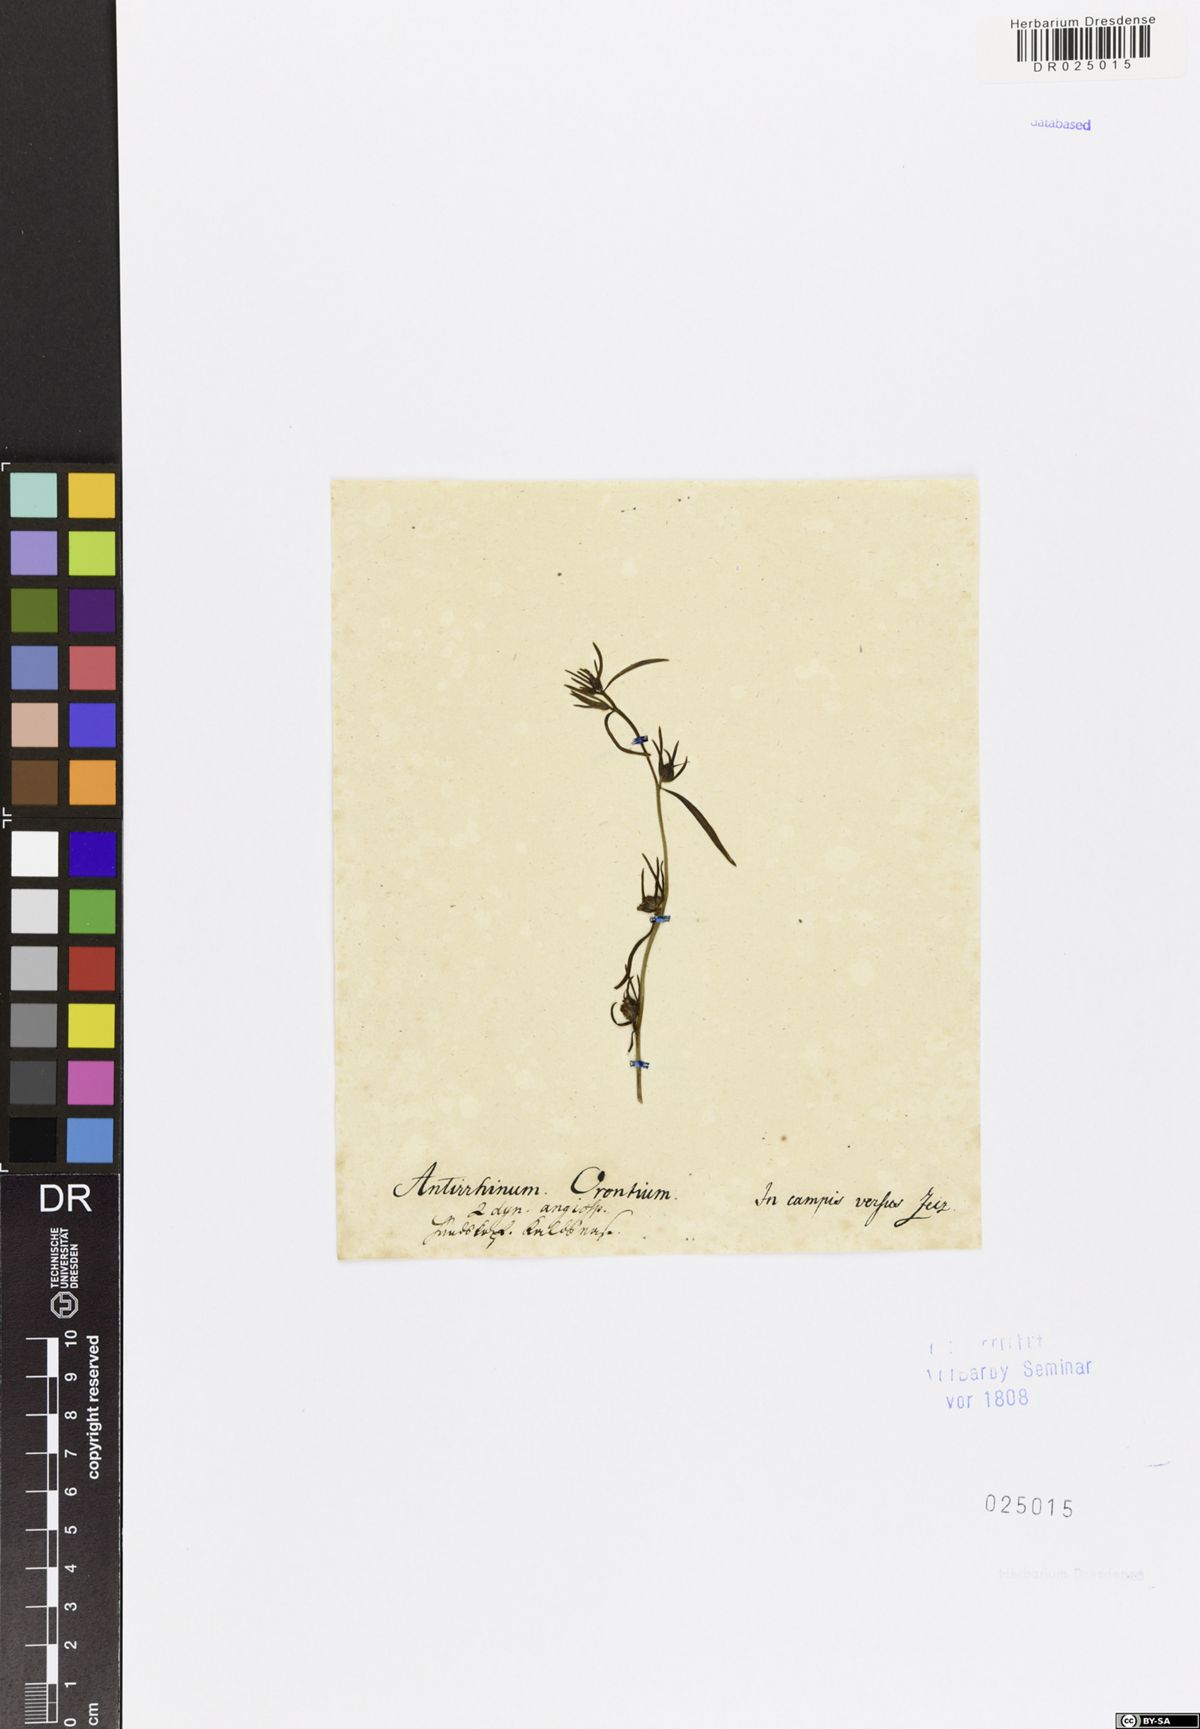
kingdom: Plantae
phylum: Tracheophyta
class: Magnoliopsida
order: Lamiales
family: Plantaginaceae
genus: Misopates
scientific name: Misopates orontium
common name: Weasel's-snout
